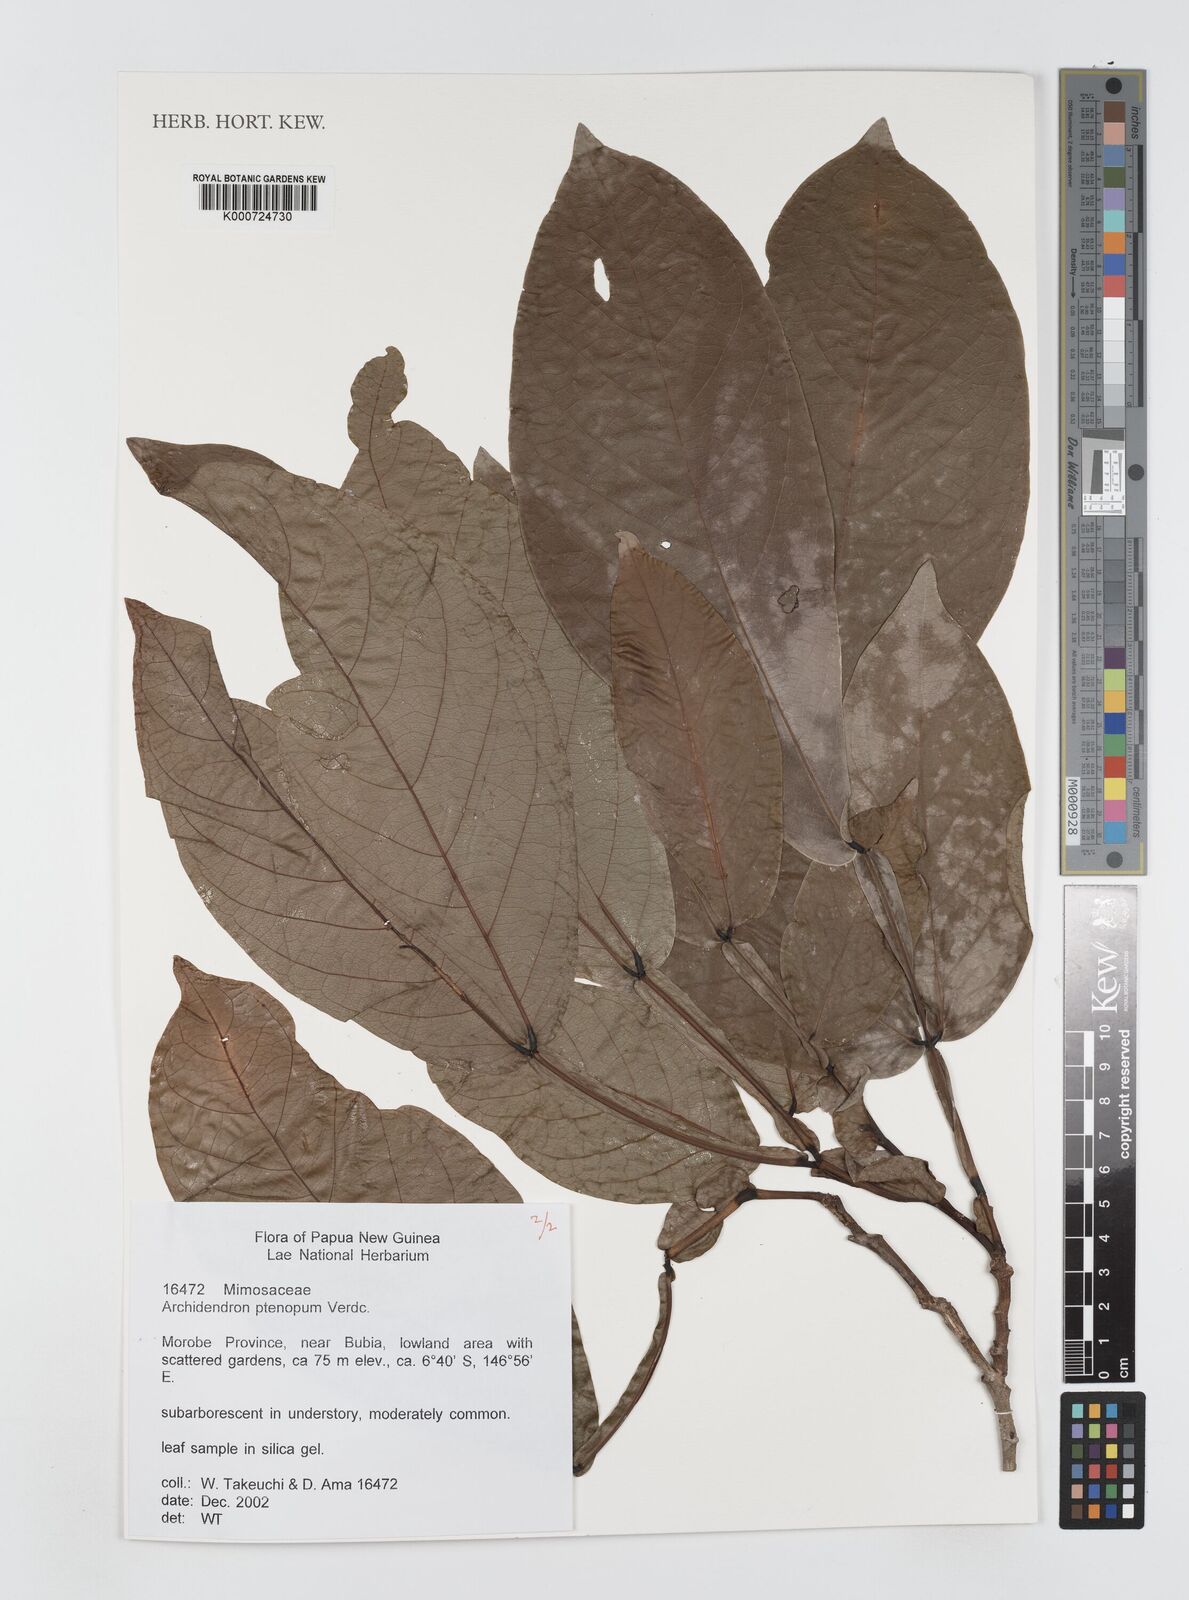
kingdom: Plantae
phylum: Tracheophyta
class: Magnoliopsida
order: Fabales
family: Fabaceae
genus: Archidendron
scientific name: Archidendron ptenopum
